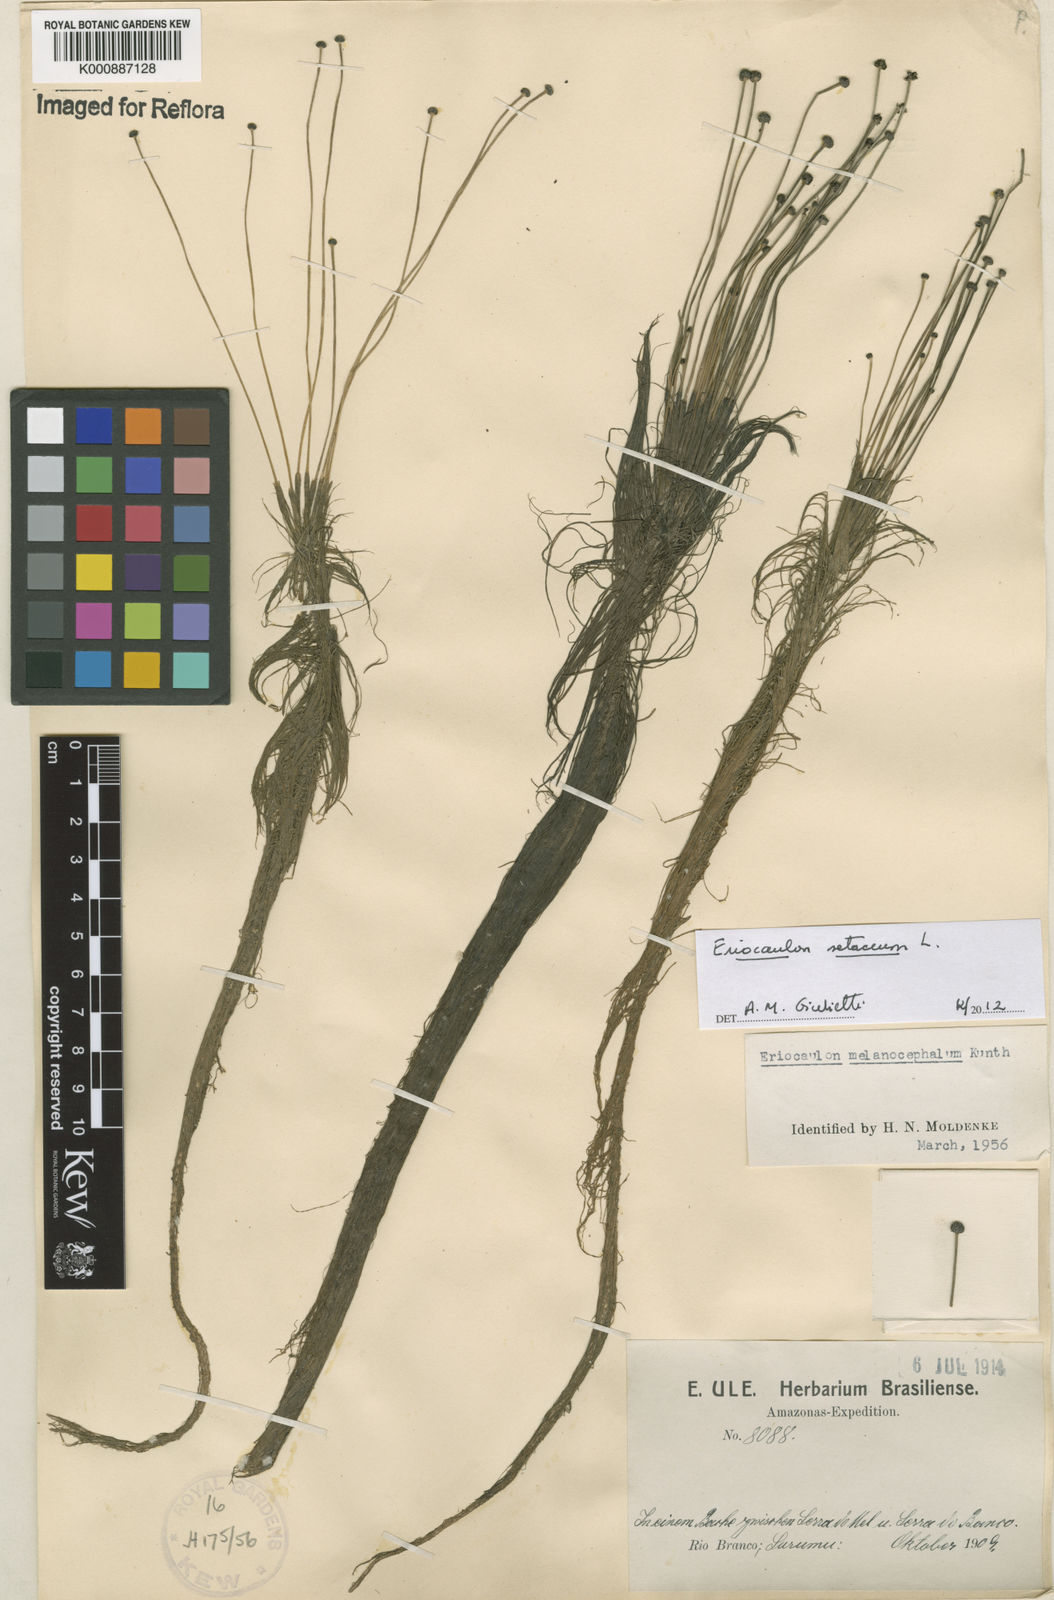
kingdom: Plantae
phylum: Tracheophyta
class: Liliopsida
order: Poales
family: Eriocaulaceae
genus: Eriocaulon
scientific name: Eriocaulon setaceum
